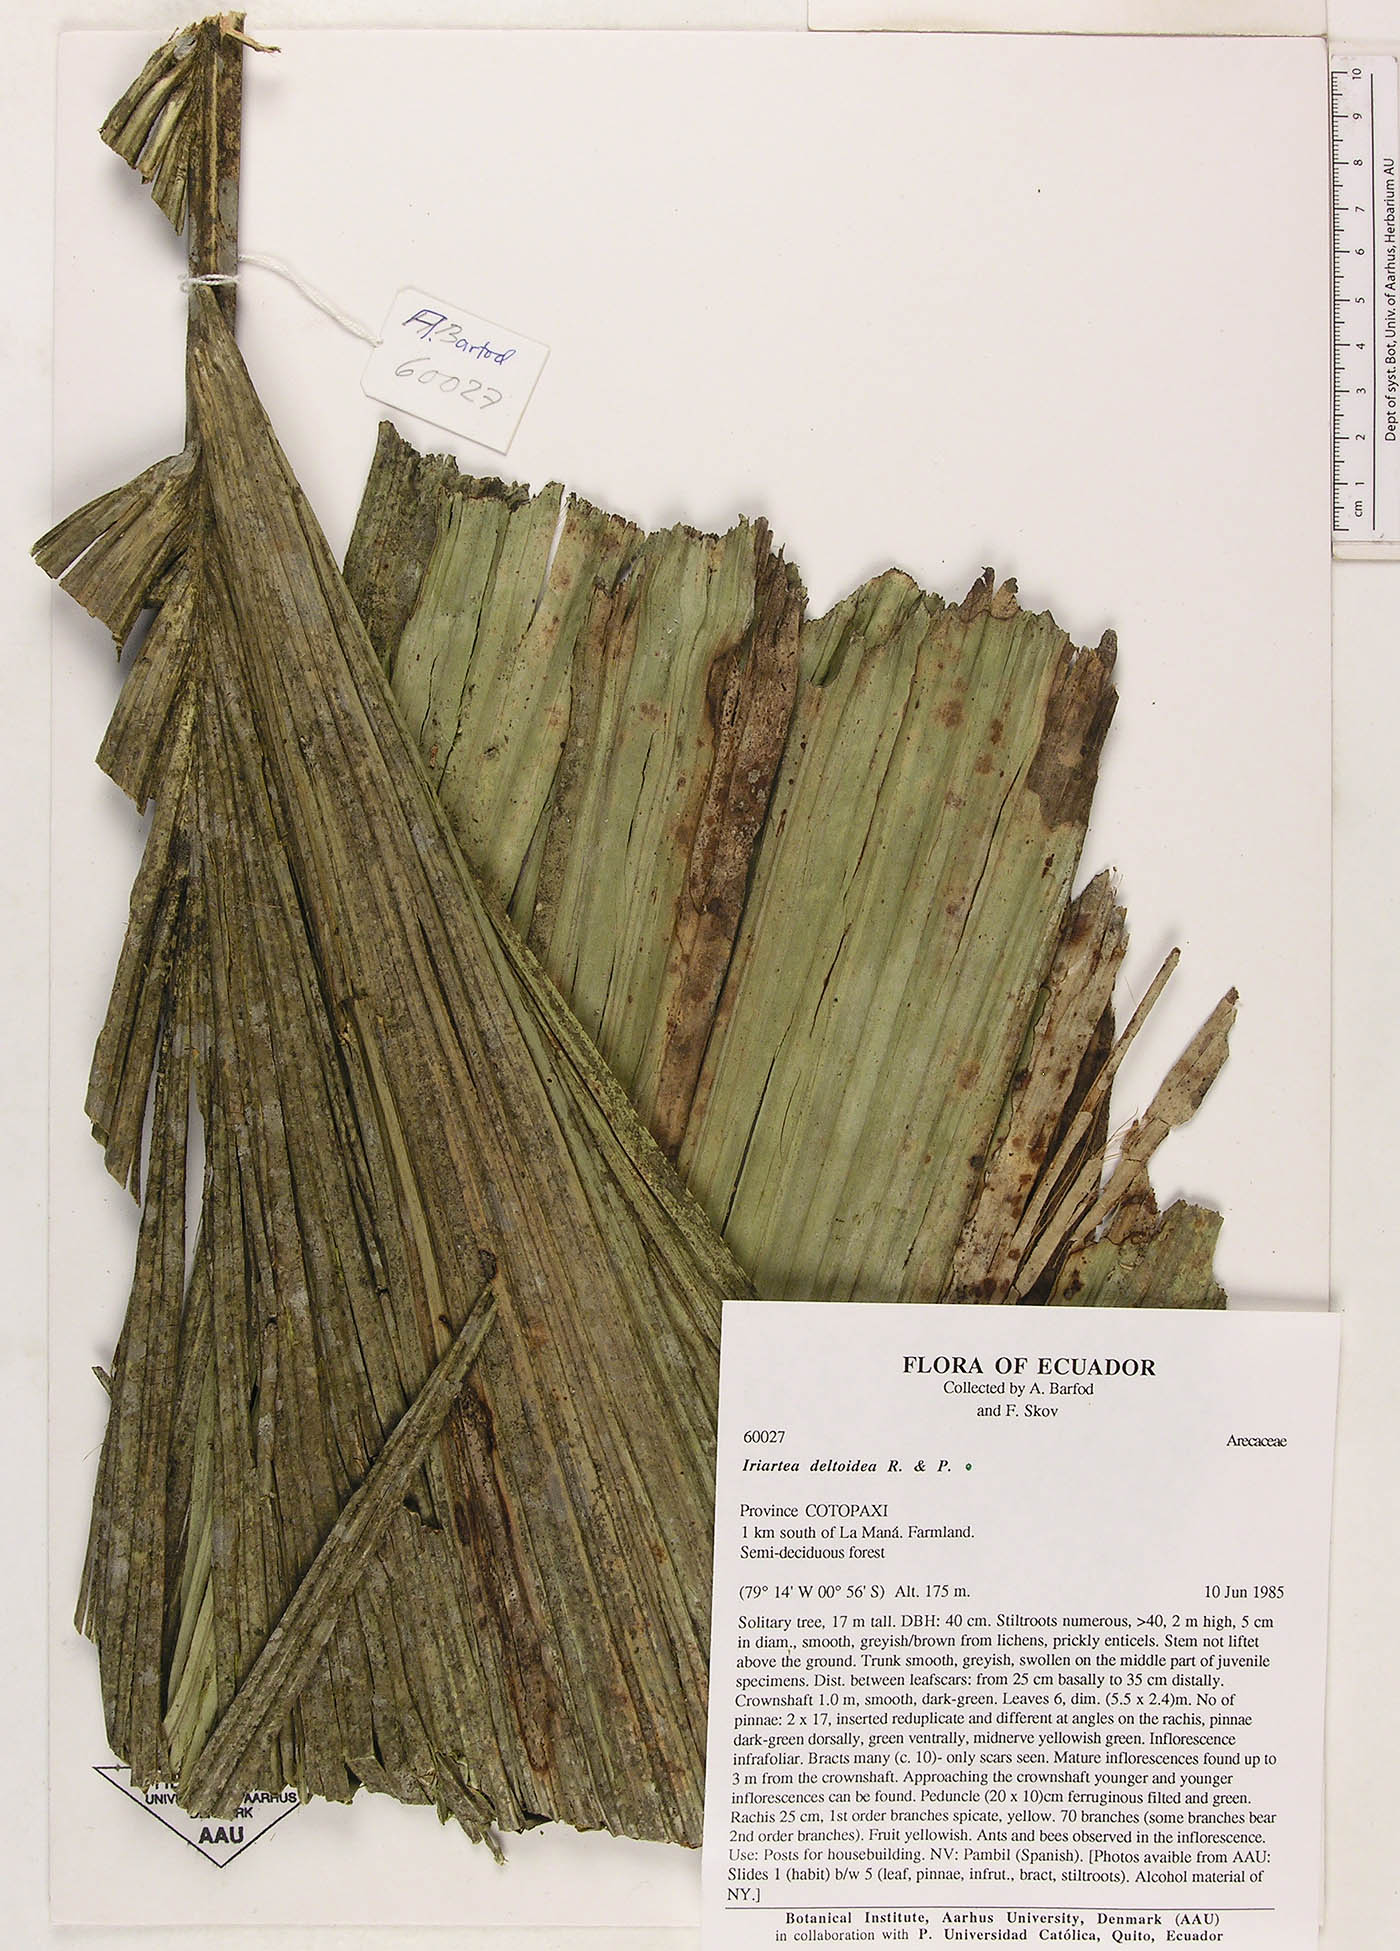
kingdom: Plantae
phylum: Tracheophyta
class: Liliopsida
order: Arecales
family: Arecaceae
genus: Iriartea
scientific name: Iriartea deltoidea
